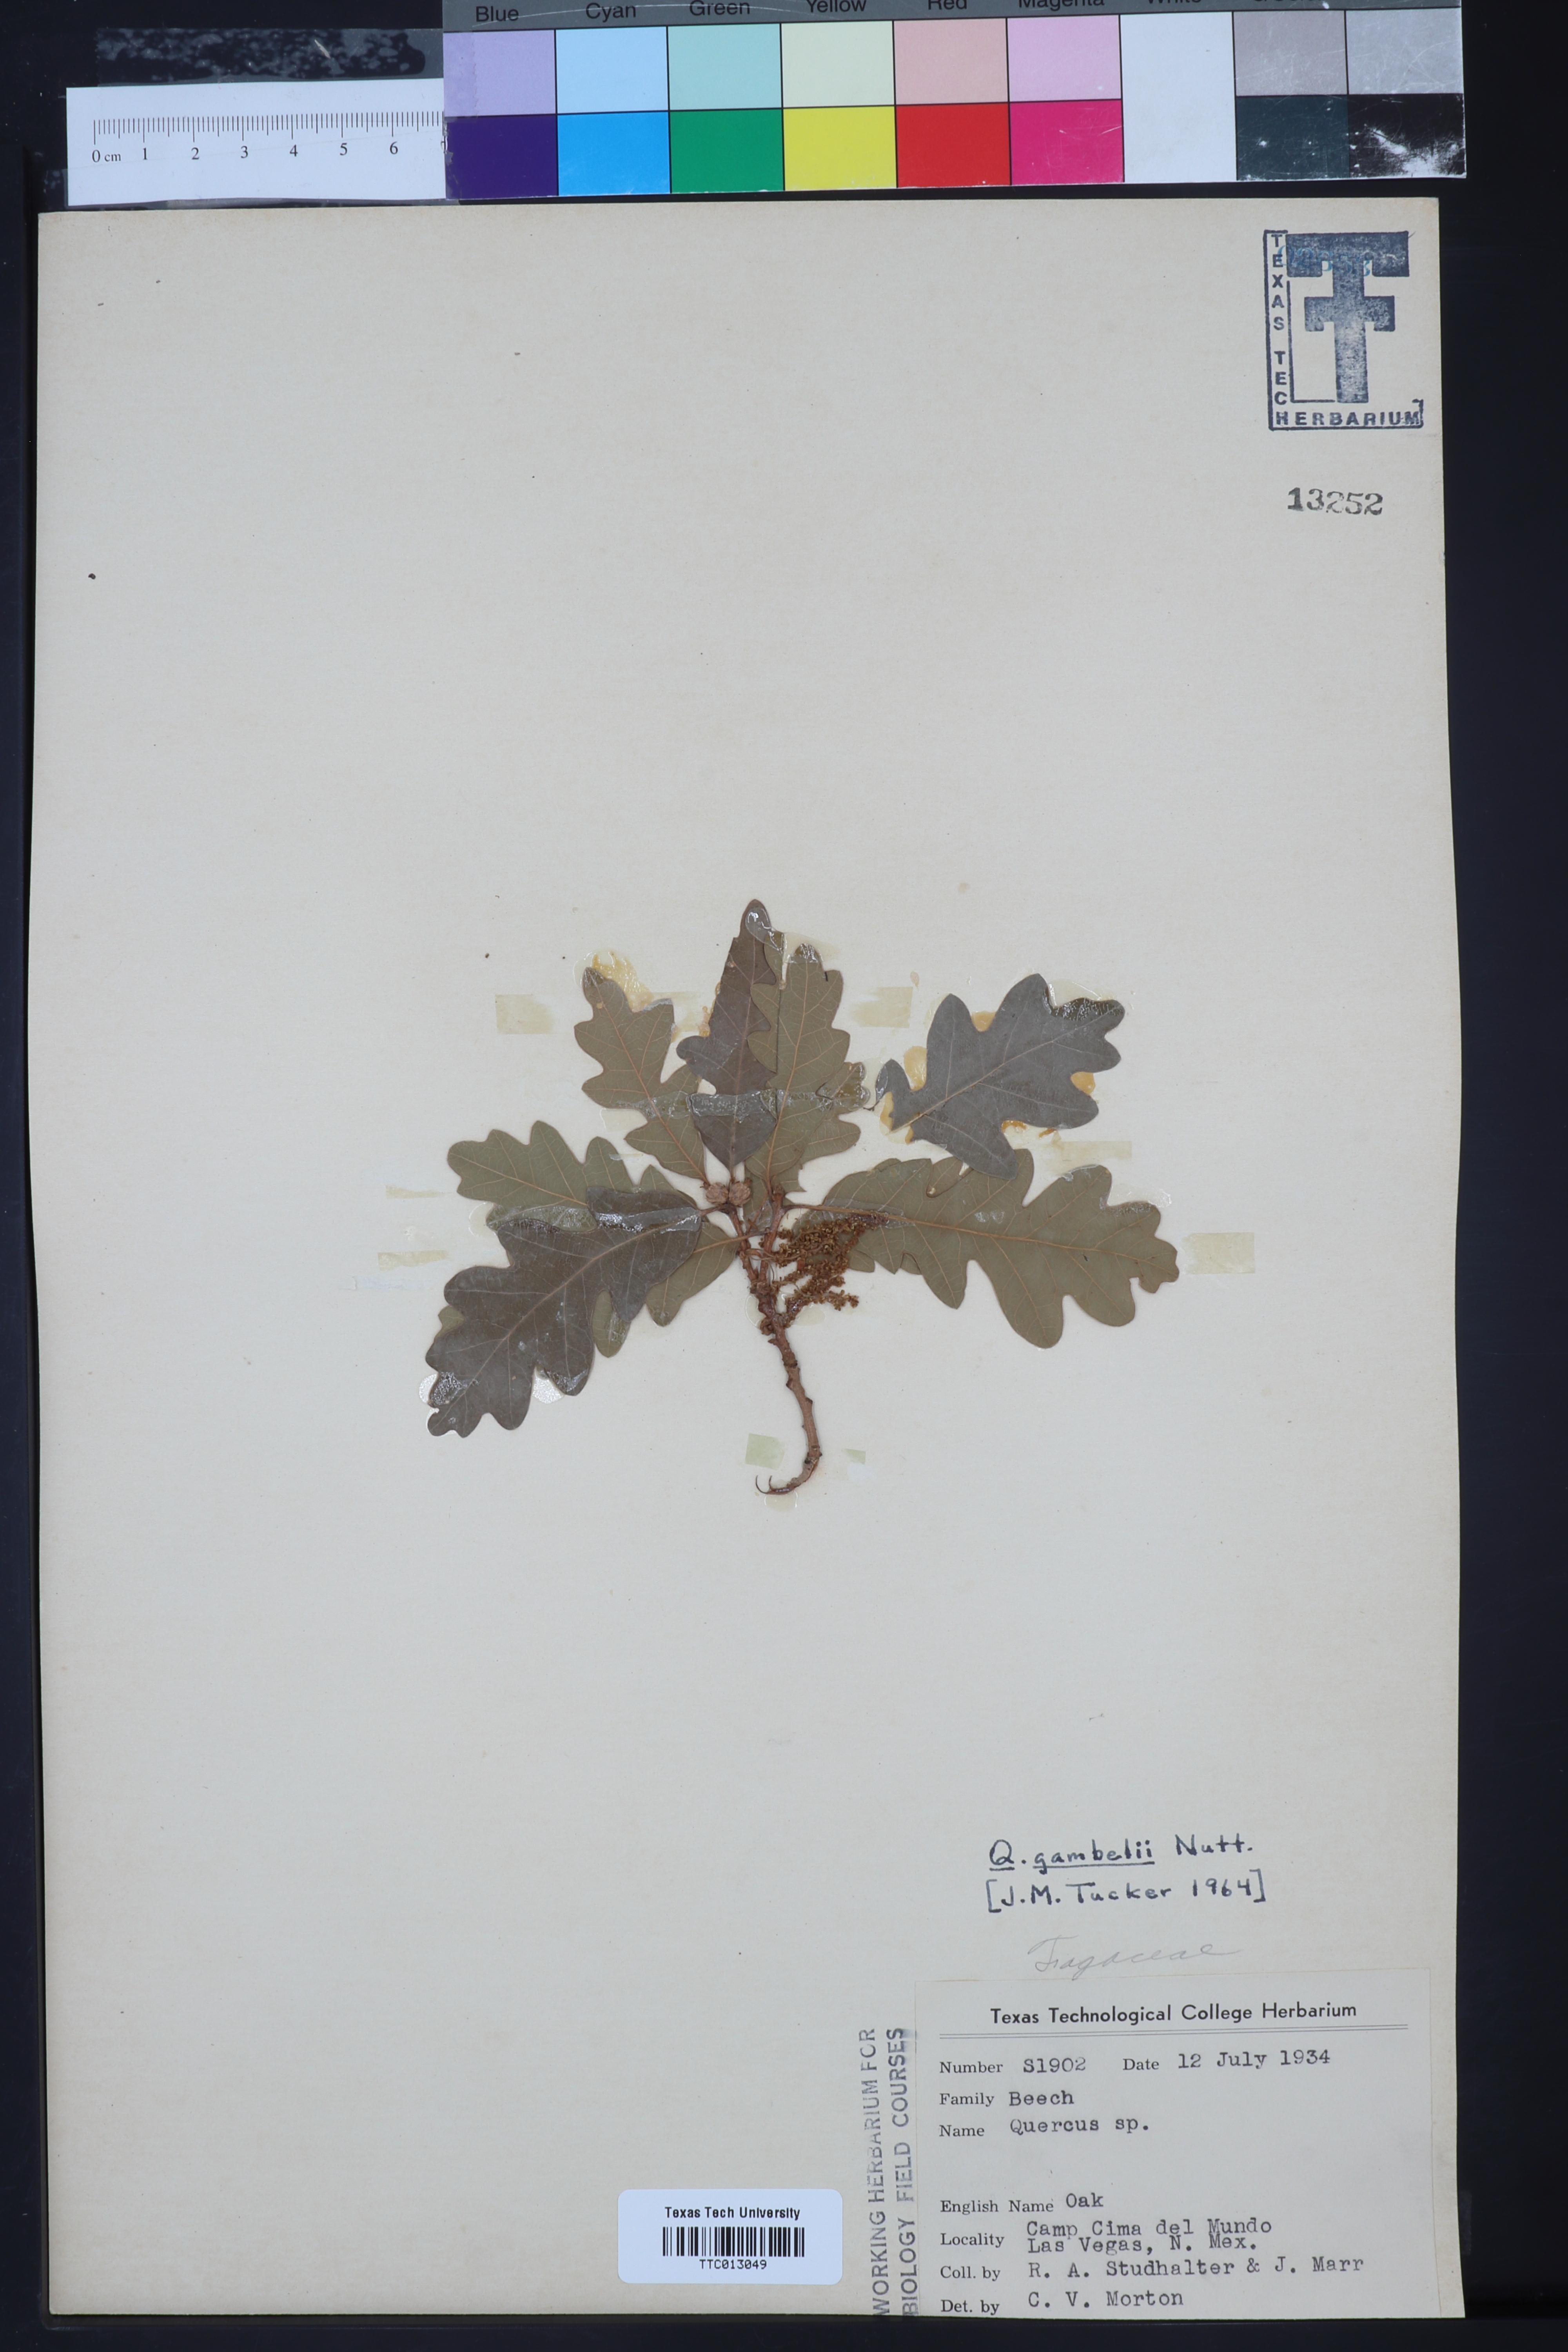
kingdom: Plantae
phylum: Tracheophyta
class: Magnoliopsida
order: Fagales
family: Fagaceae
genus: Quercus
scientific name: Quercus gambelii
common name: Gambel oak
